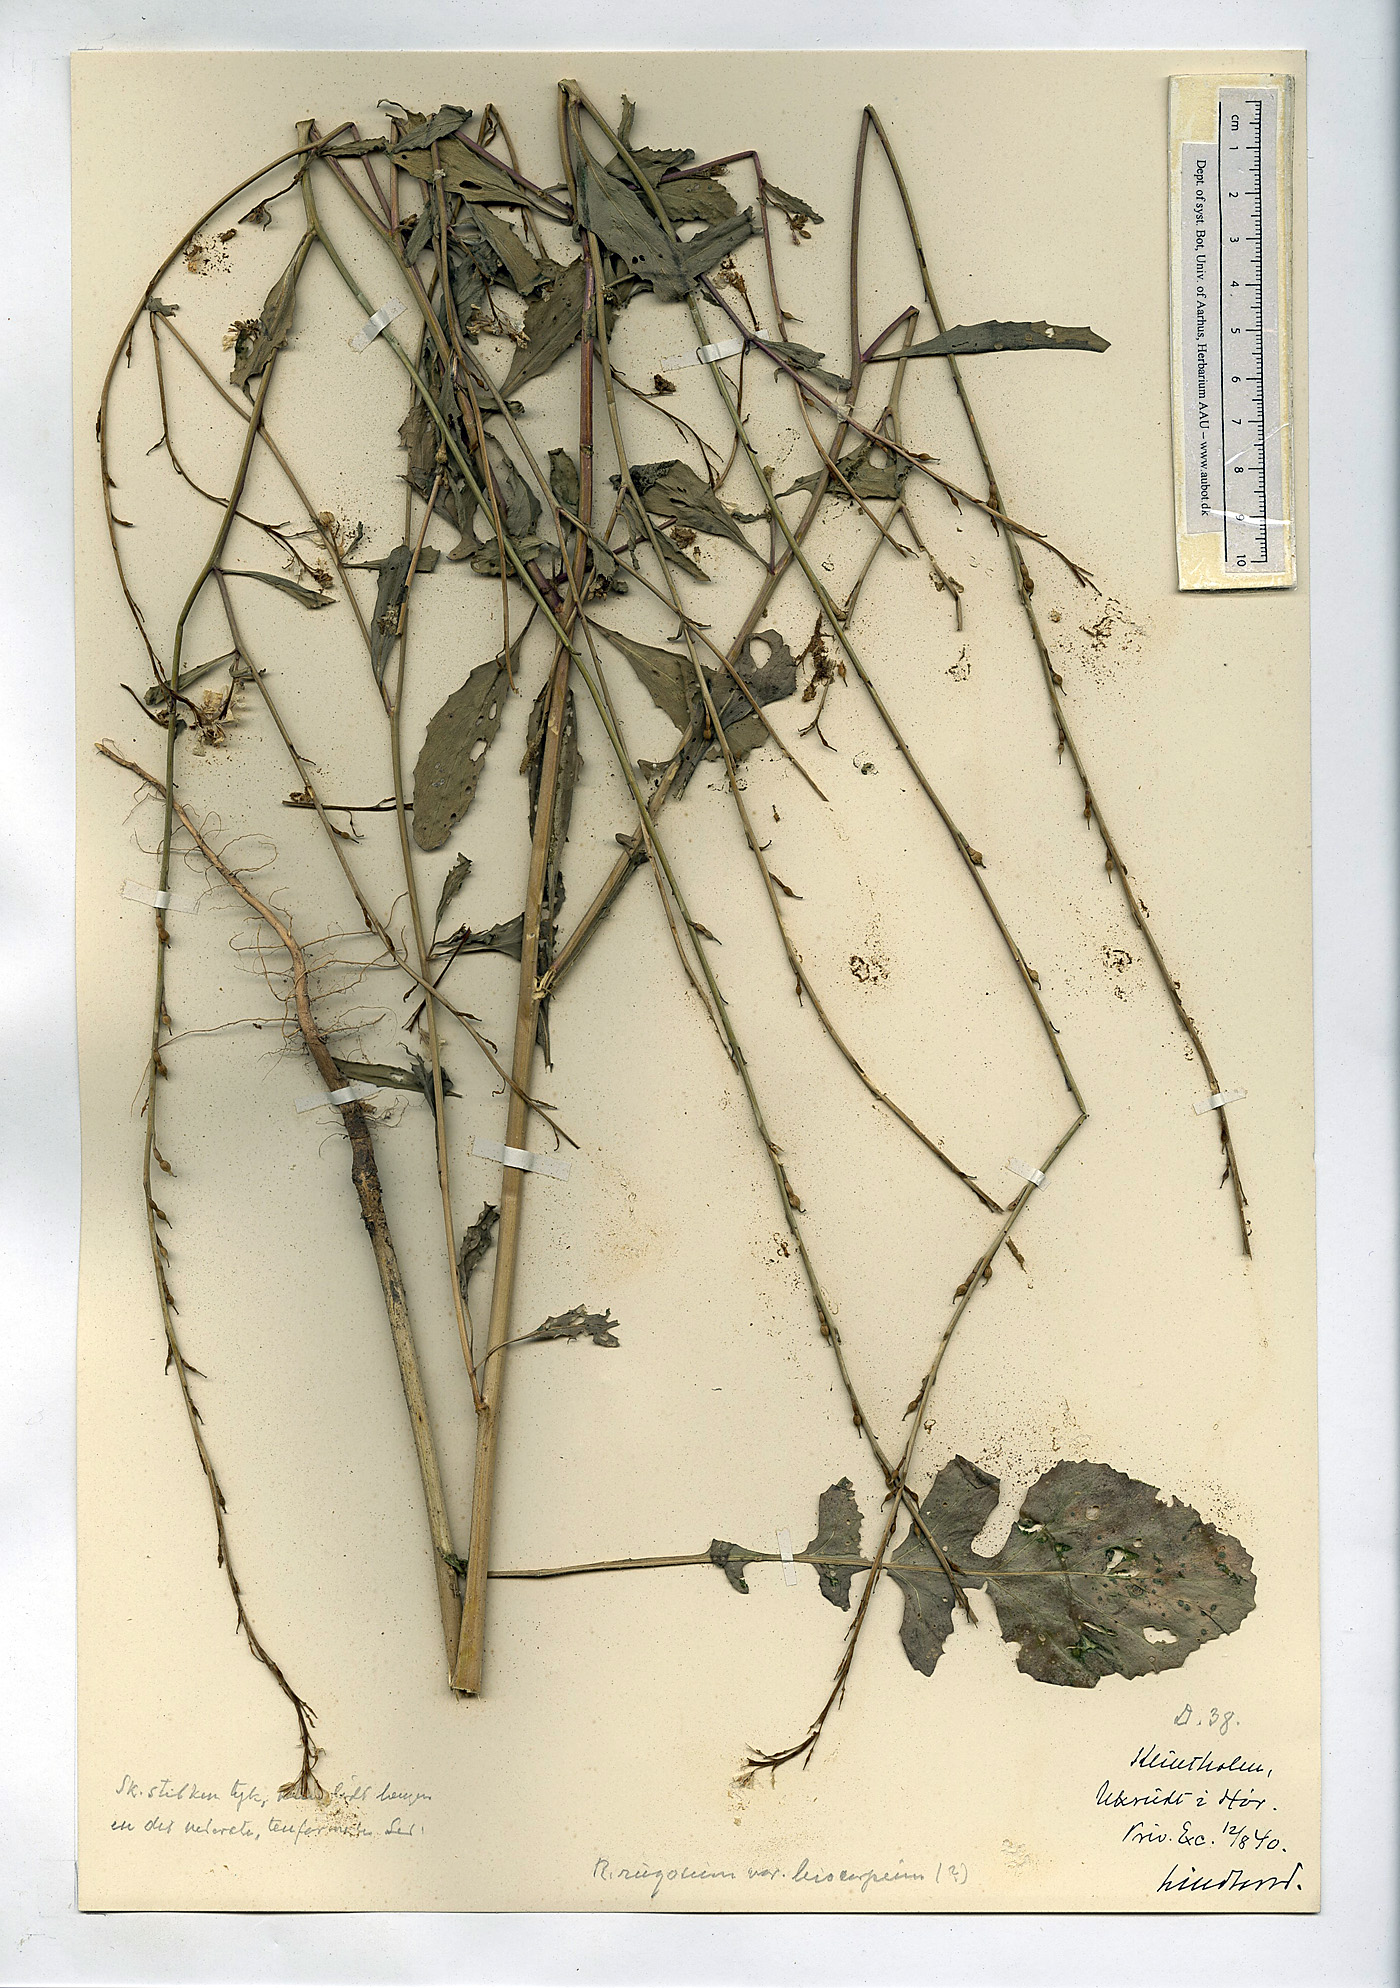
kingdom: Plantae
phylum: Tracheophyta
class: Magnoliopsida
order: Brassicales
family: Brassicaceae
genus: Rapistrum
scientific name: Rapistrum rugosum
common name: Annual bastardcabbage
